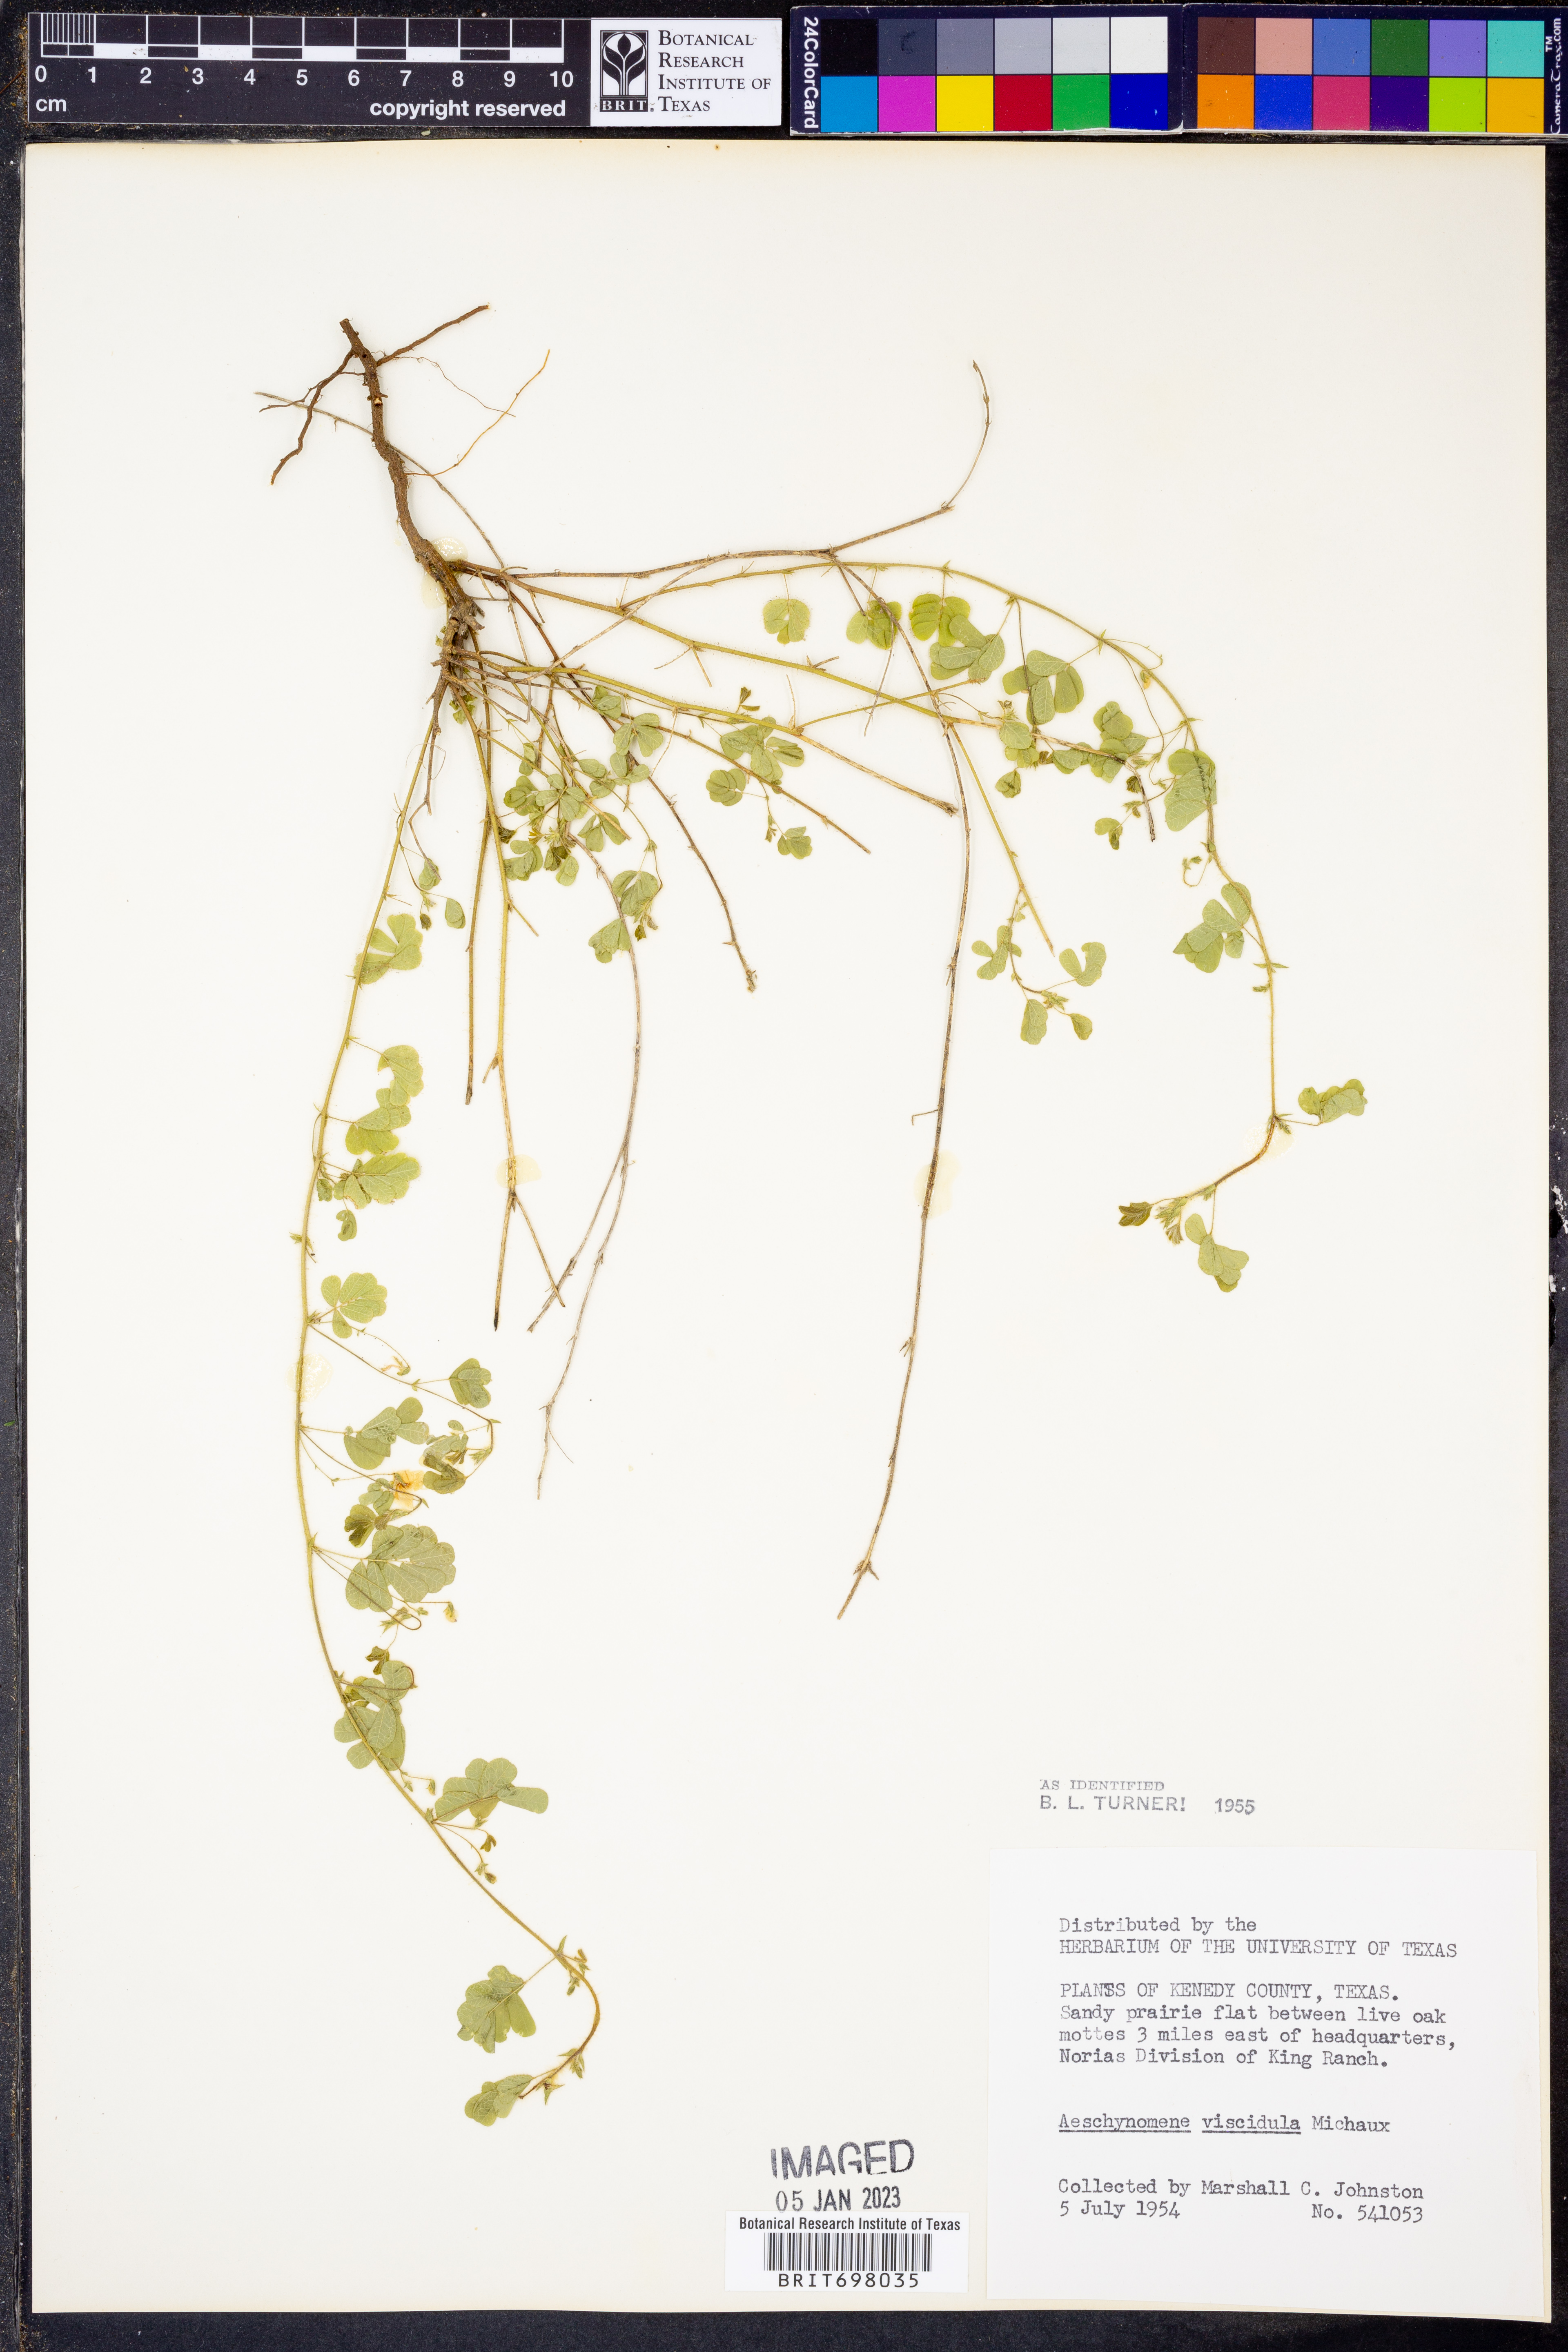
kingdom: Plantae
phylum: Tracheophyta
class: Magnoliopsida
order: Fabales
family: Fabaceae
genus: Aeschynomene
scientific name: Aeschynomene indica
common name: Indian jointvetch
